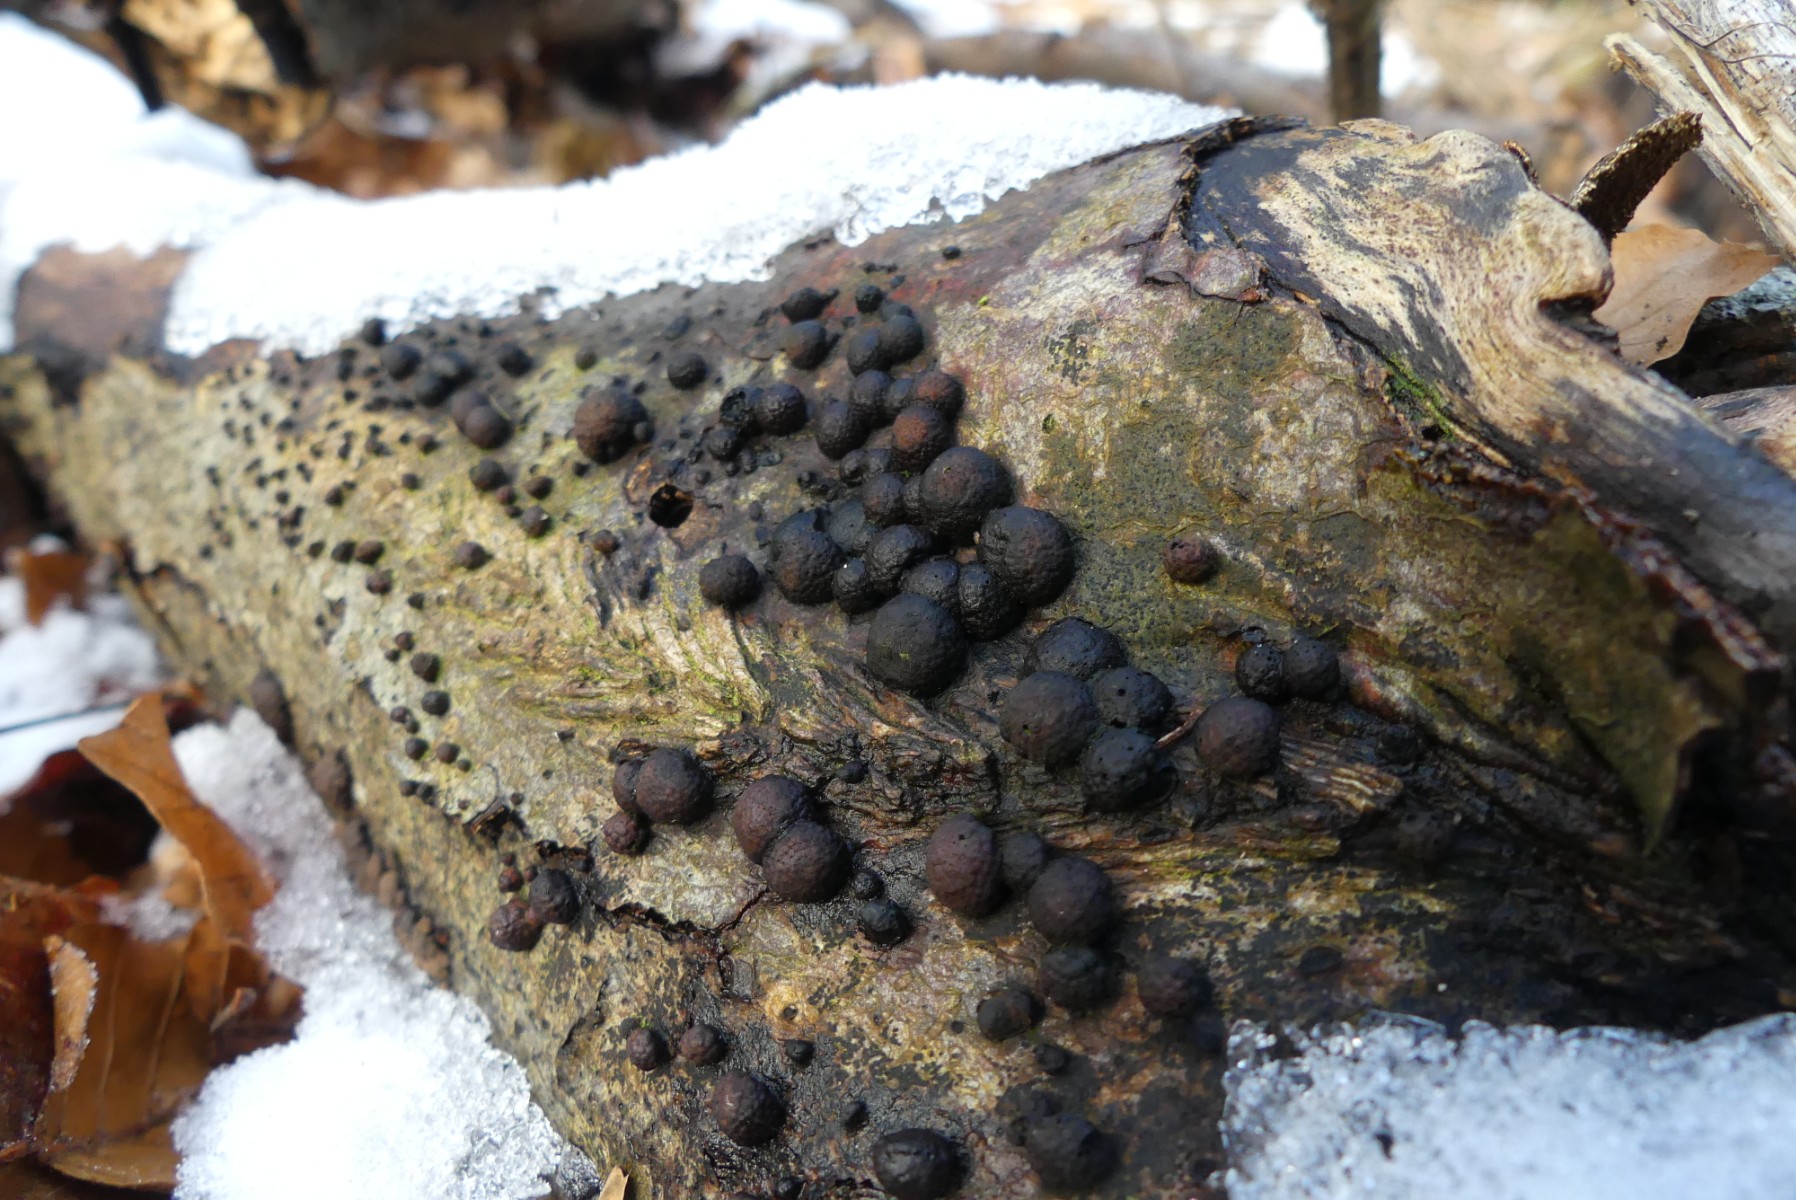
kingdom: Fungi
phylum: Ascomycota
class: Sordariomycetes
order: Xylariales
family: Hypoxylaceae
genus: Hypoxylon
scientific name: Hypoxylon fragiforme
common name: kuljordbær
